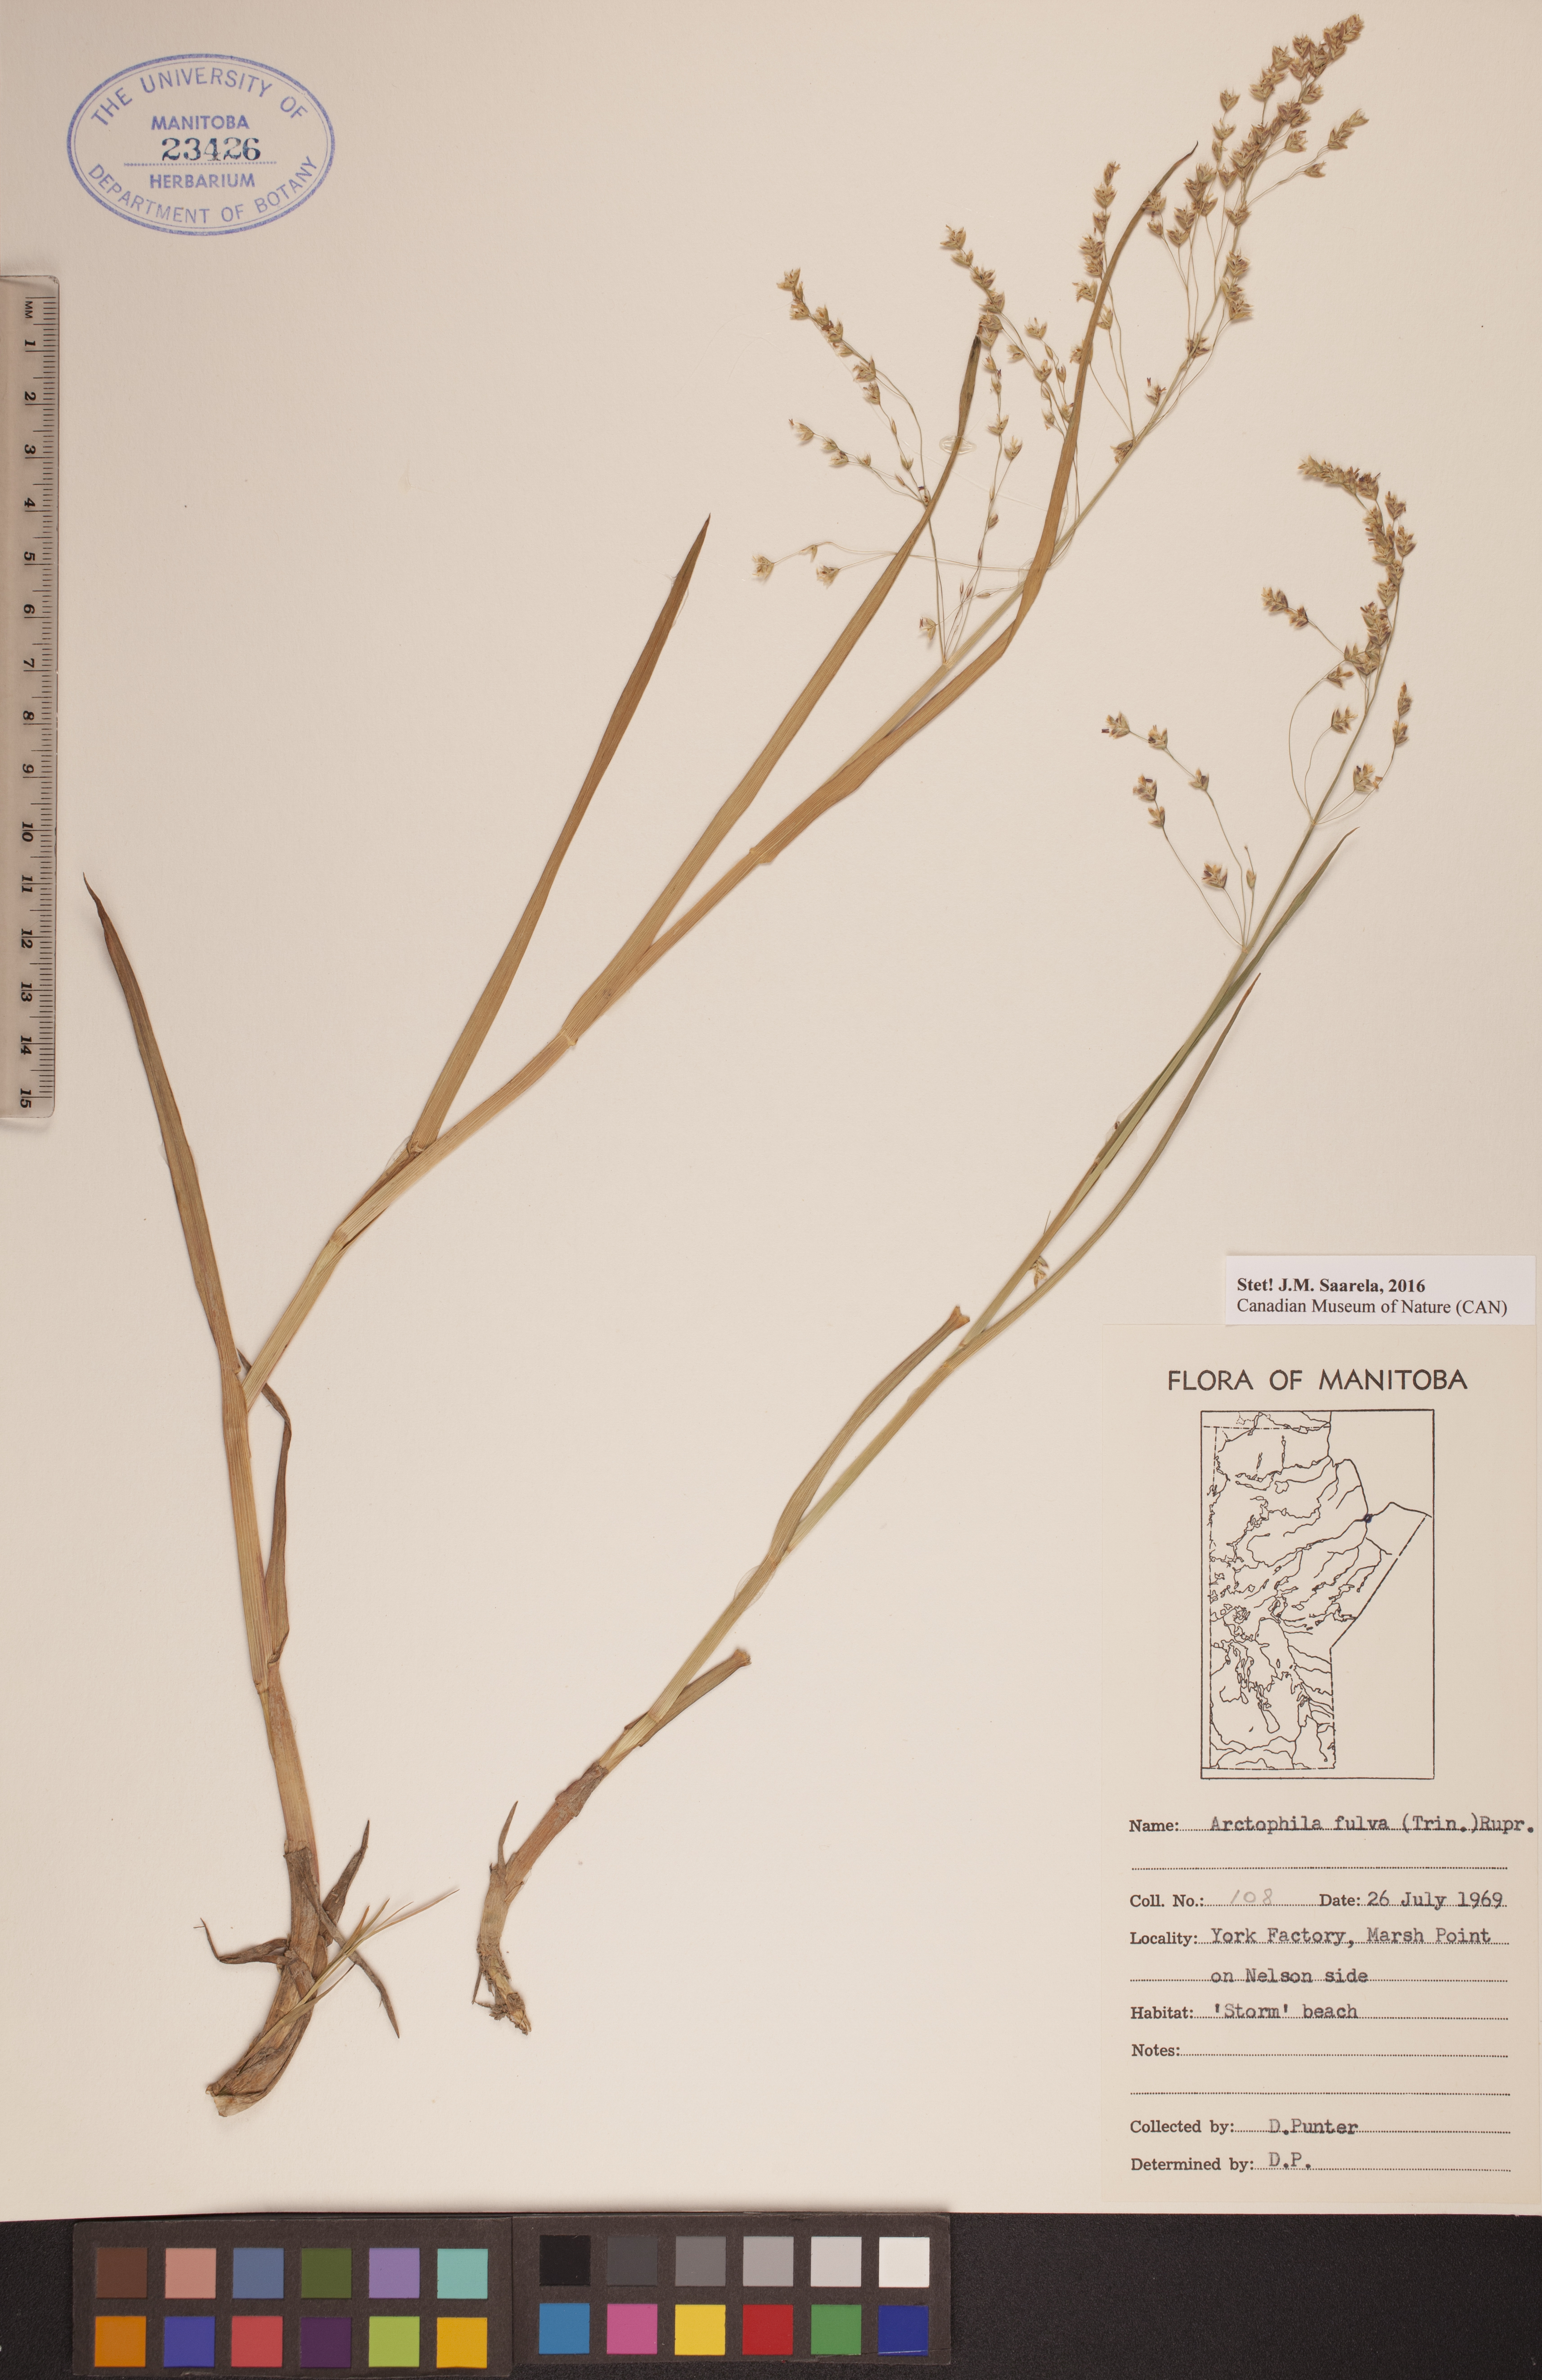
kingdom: Plantae
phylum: Tracheophyta
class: Liliopsida
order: Poales
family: Poaceae
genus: Dupontia
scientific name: Dupontia fulva
